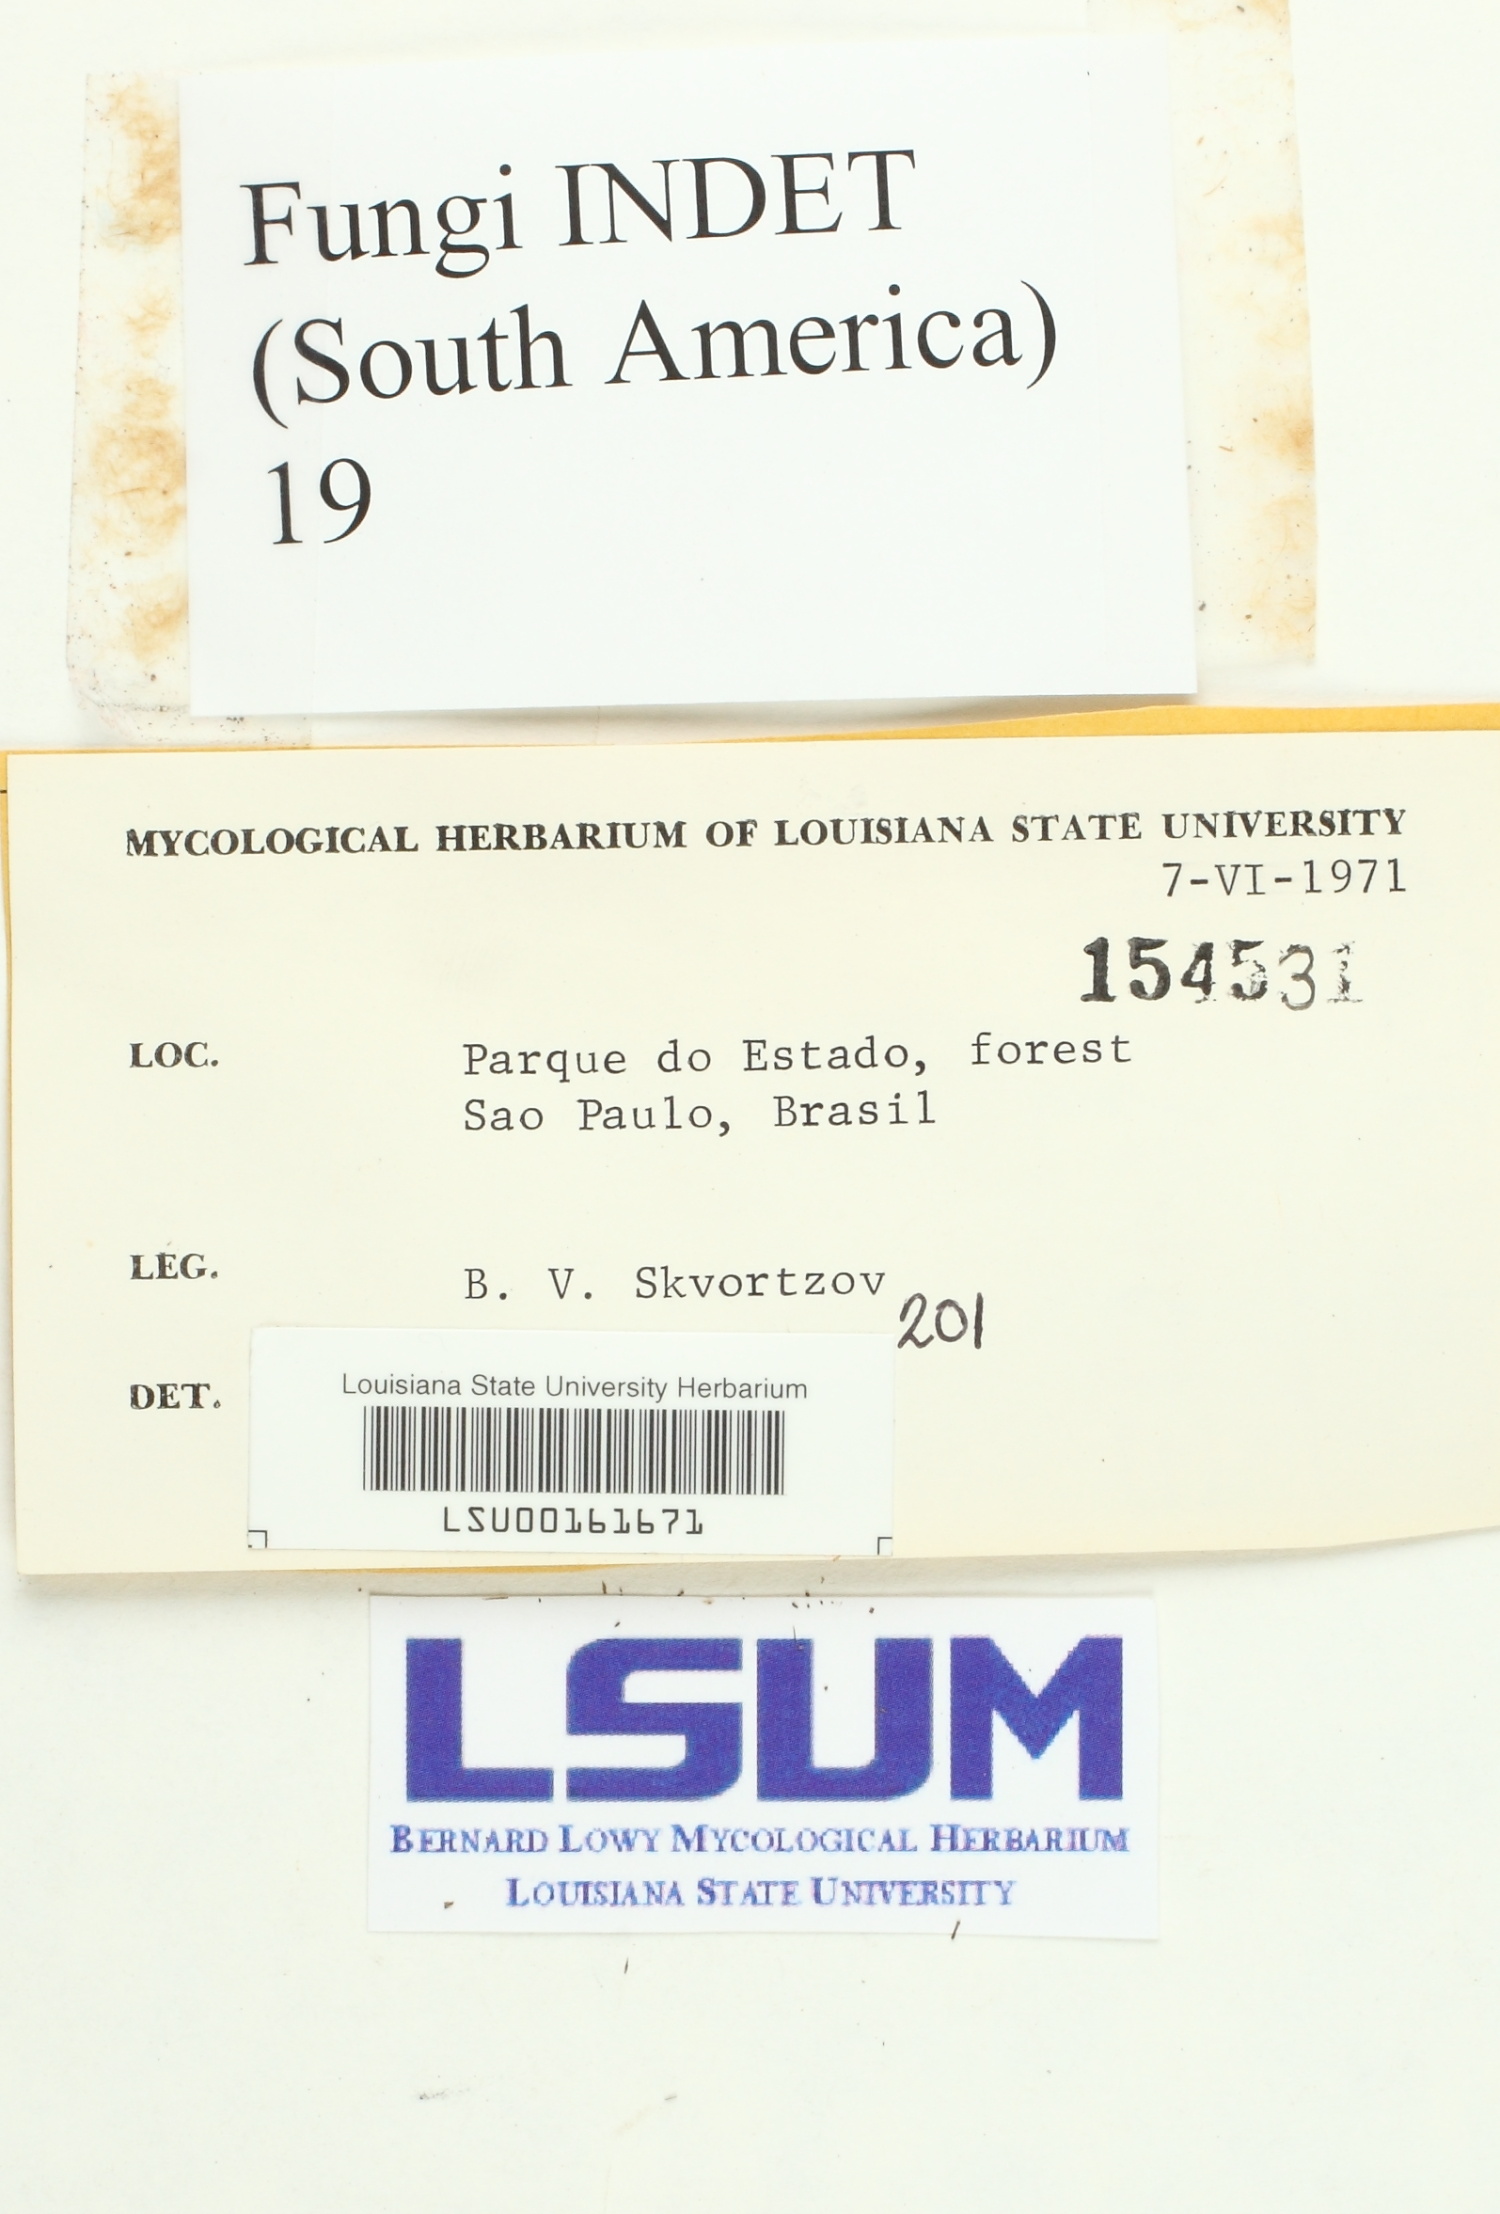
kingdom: Fungi
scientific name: Fungi
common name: Fungi
